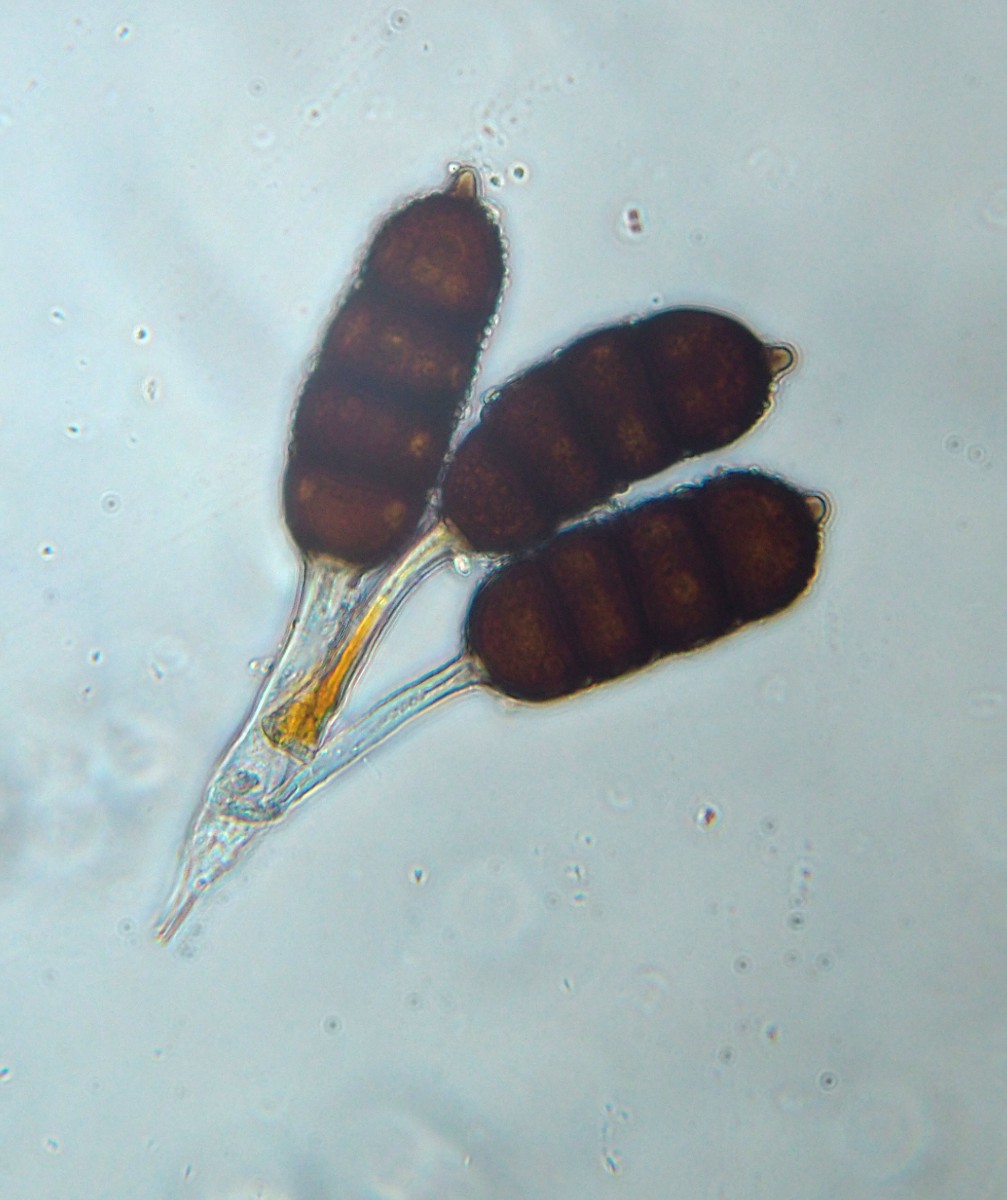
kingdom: Fungi
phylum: Basidiomycota
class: Pucciniomycetes
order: Pucciniales
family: Phragmidiaceae
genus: Phragmidium
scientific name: Phragmidium violaceum
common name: violet flercellerust
